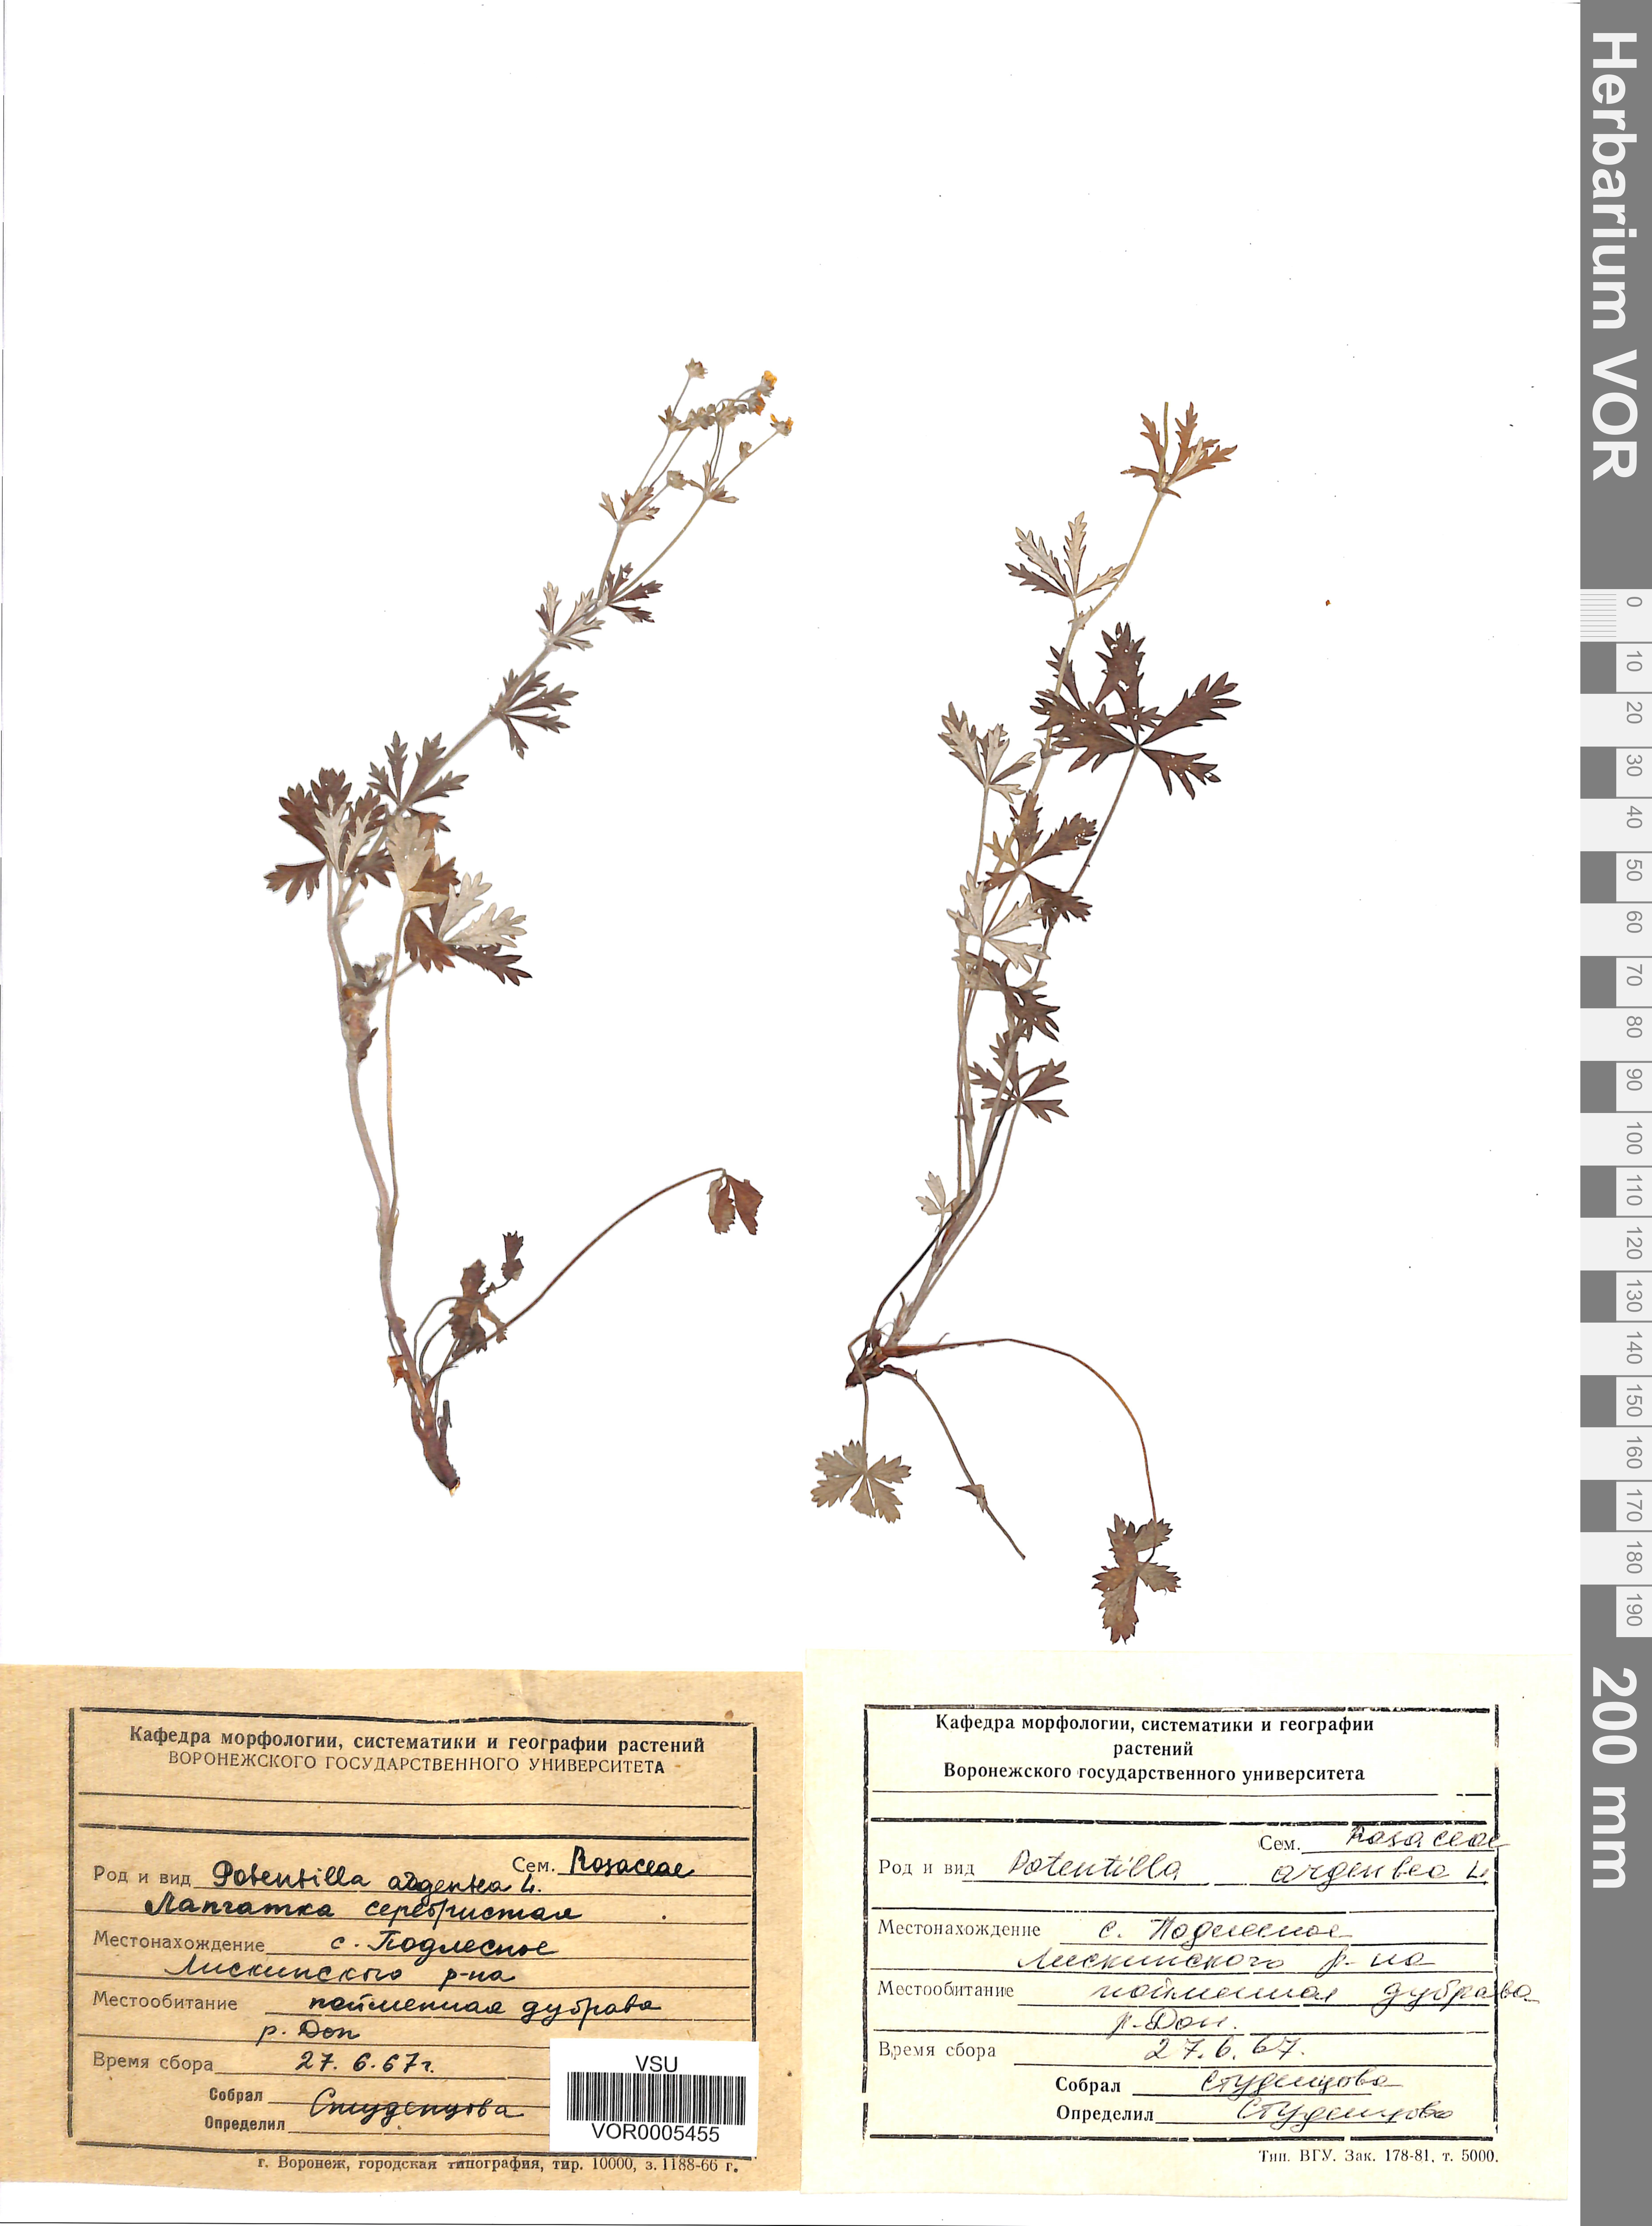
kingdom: Plantae
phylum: Tracheophyta
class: Magnoliopsida
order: Rosales
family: Rosaceae
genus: Potentilla
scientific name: Potentilla argentea
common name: Hoary cinquefoil
